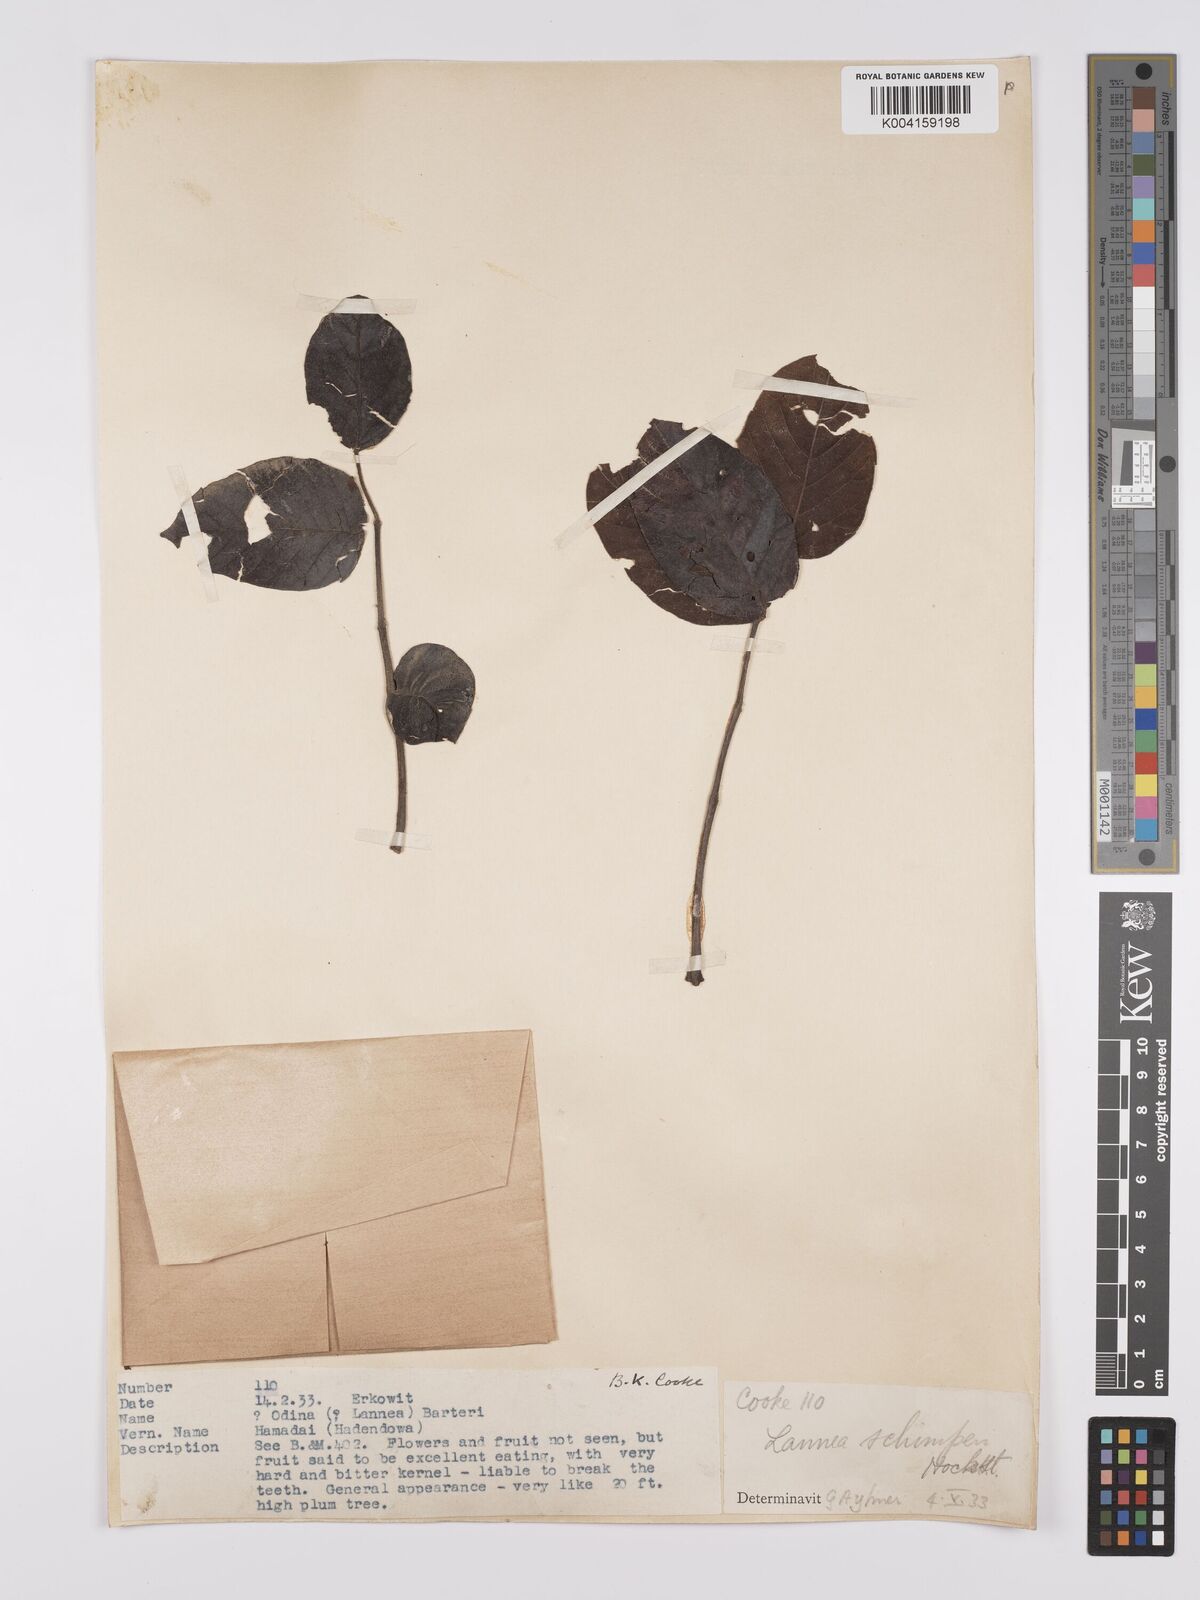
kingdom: Plantae
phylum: Tracheophyta
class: Magnoliopsida
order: Sapindales
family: Anacardiaceae
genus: Lannea
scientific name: Lannea schimperi
